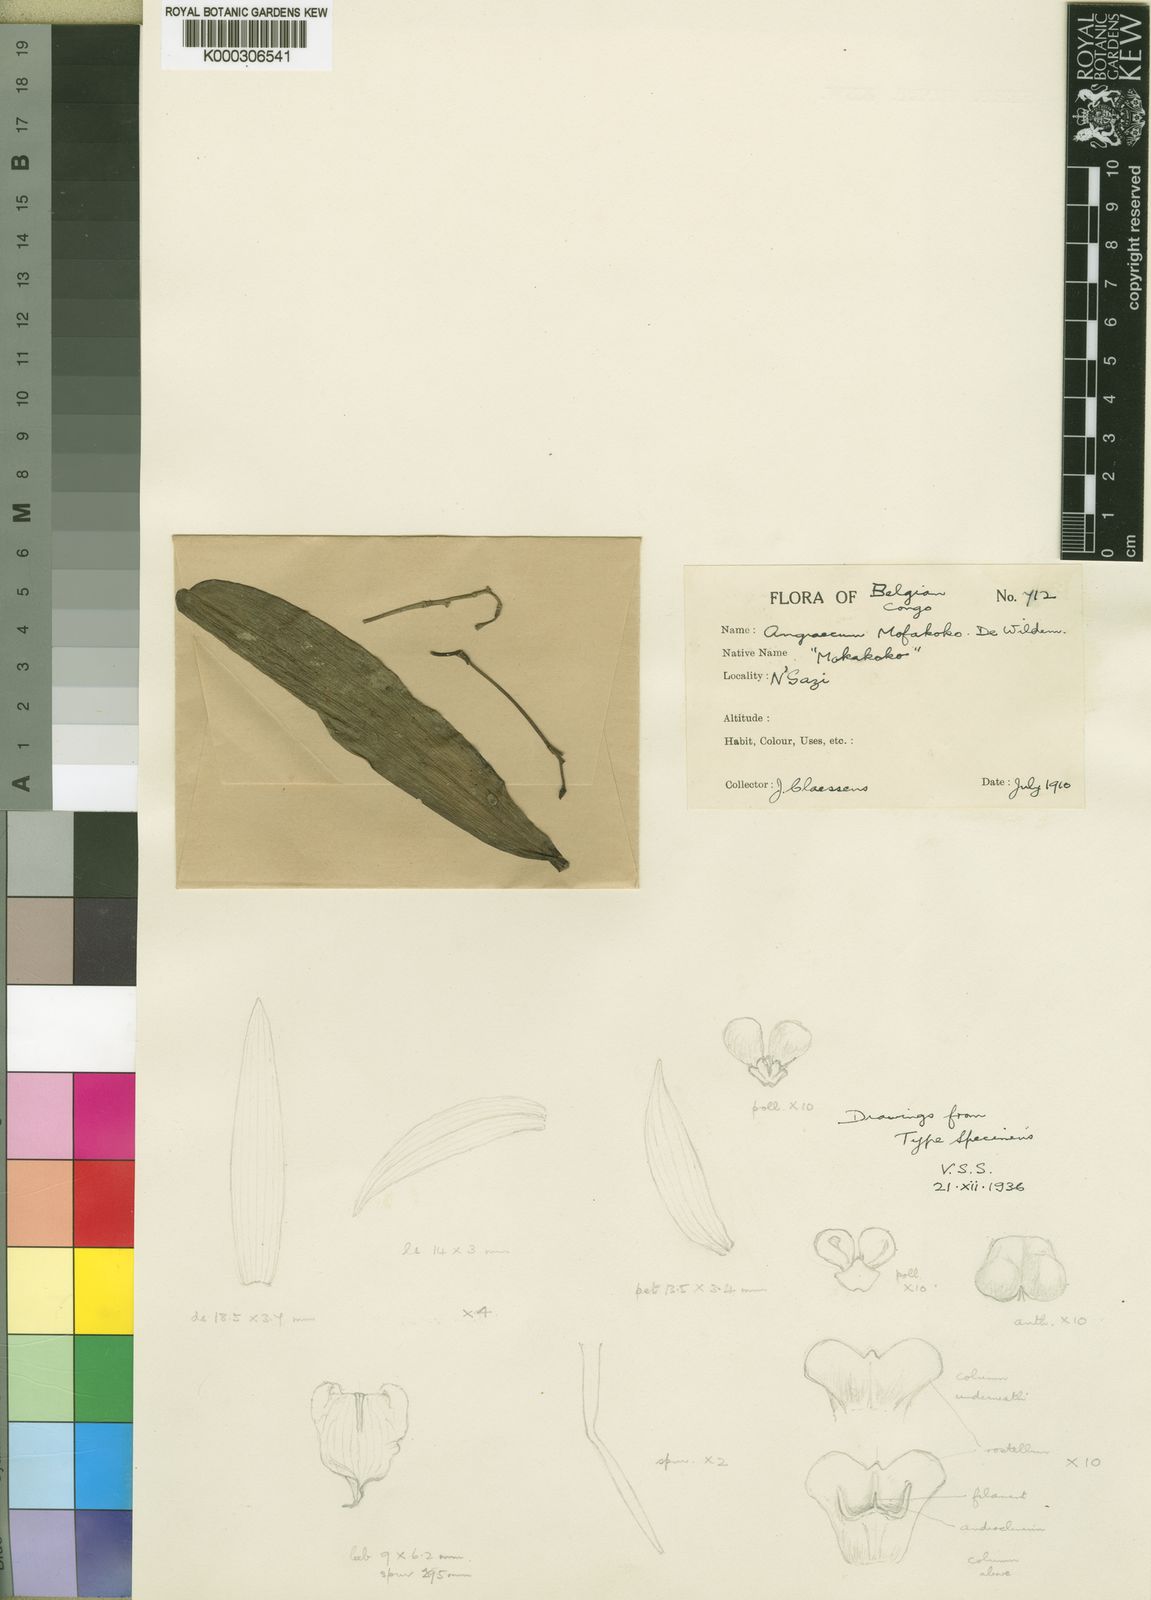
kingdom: Plantae
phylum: Tracheophyta
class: Liliopsida
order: Asparagales
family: Orchidaceae
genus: Angraecum
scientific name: Angraecum mofakoko
